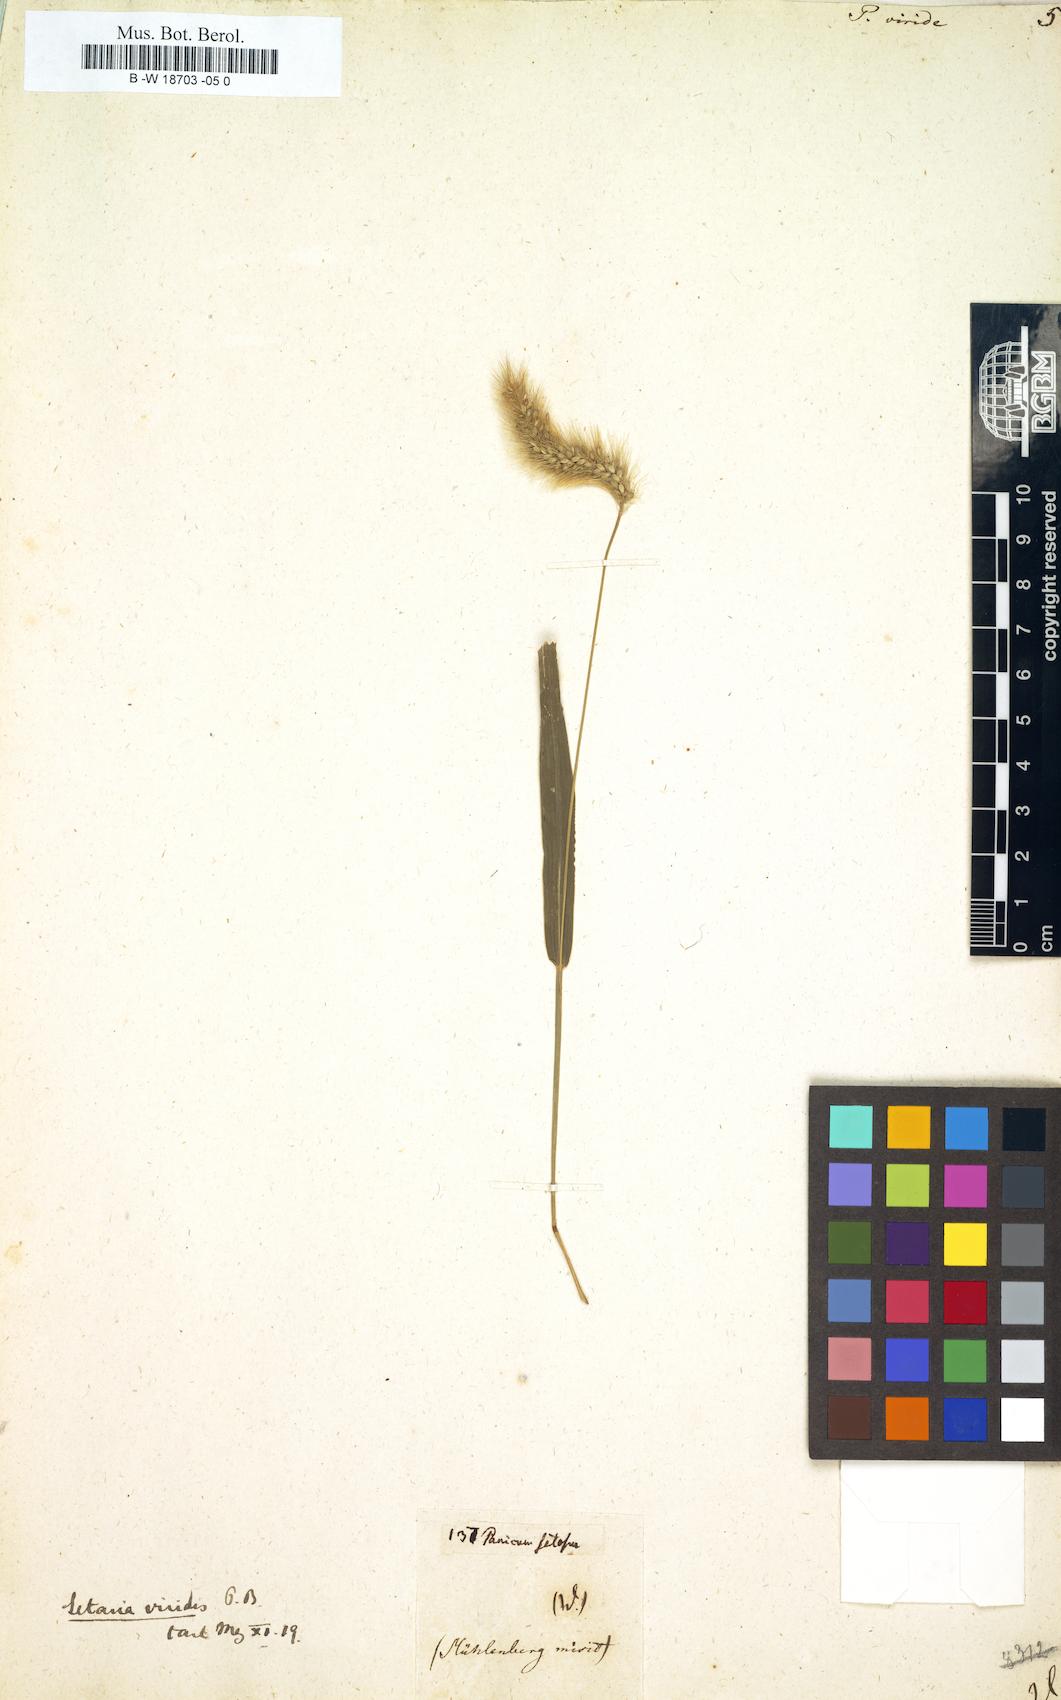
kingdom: Plantae
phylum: Tracheophyta
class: Liliopsida
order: Poales
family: Poaceae
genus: Setaria
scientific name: Setaria viridis
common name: Green bristlegrass
